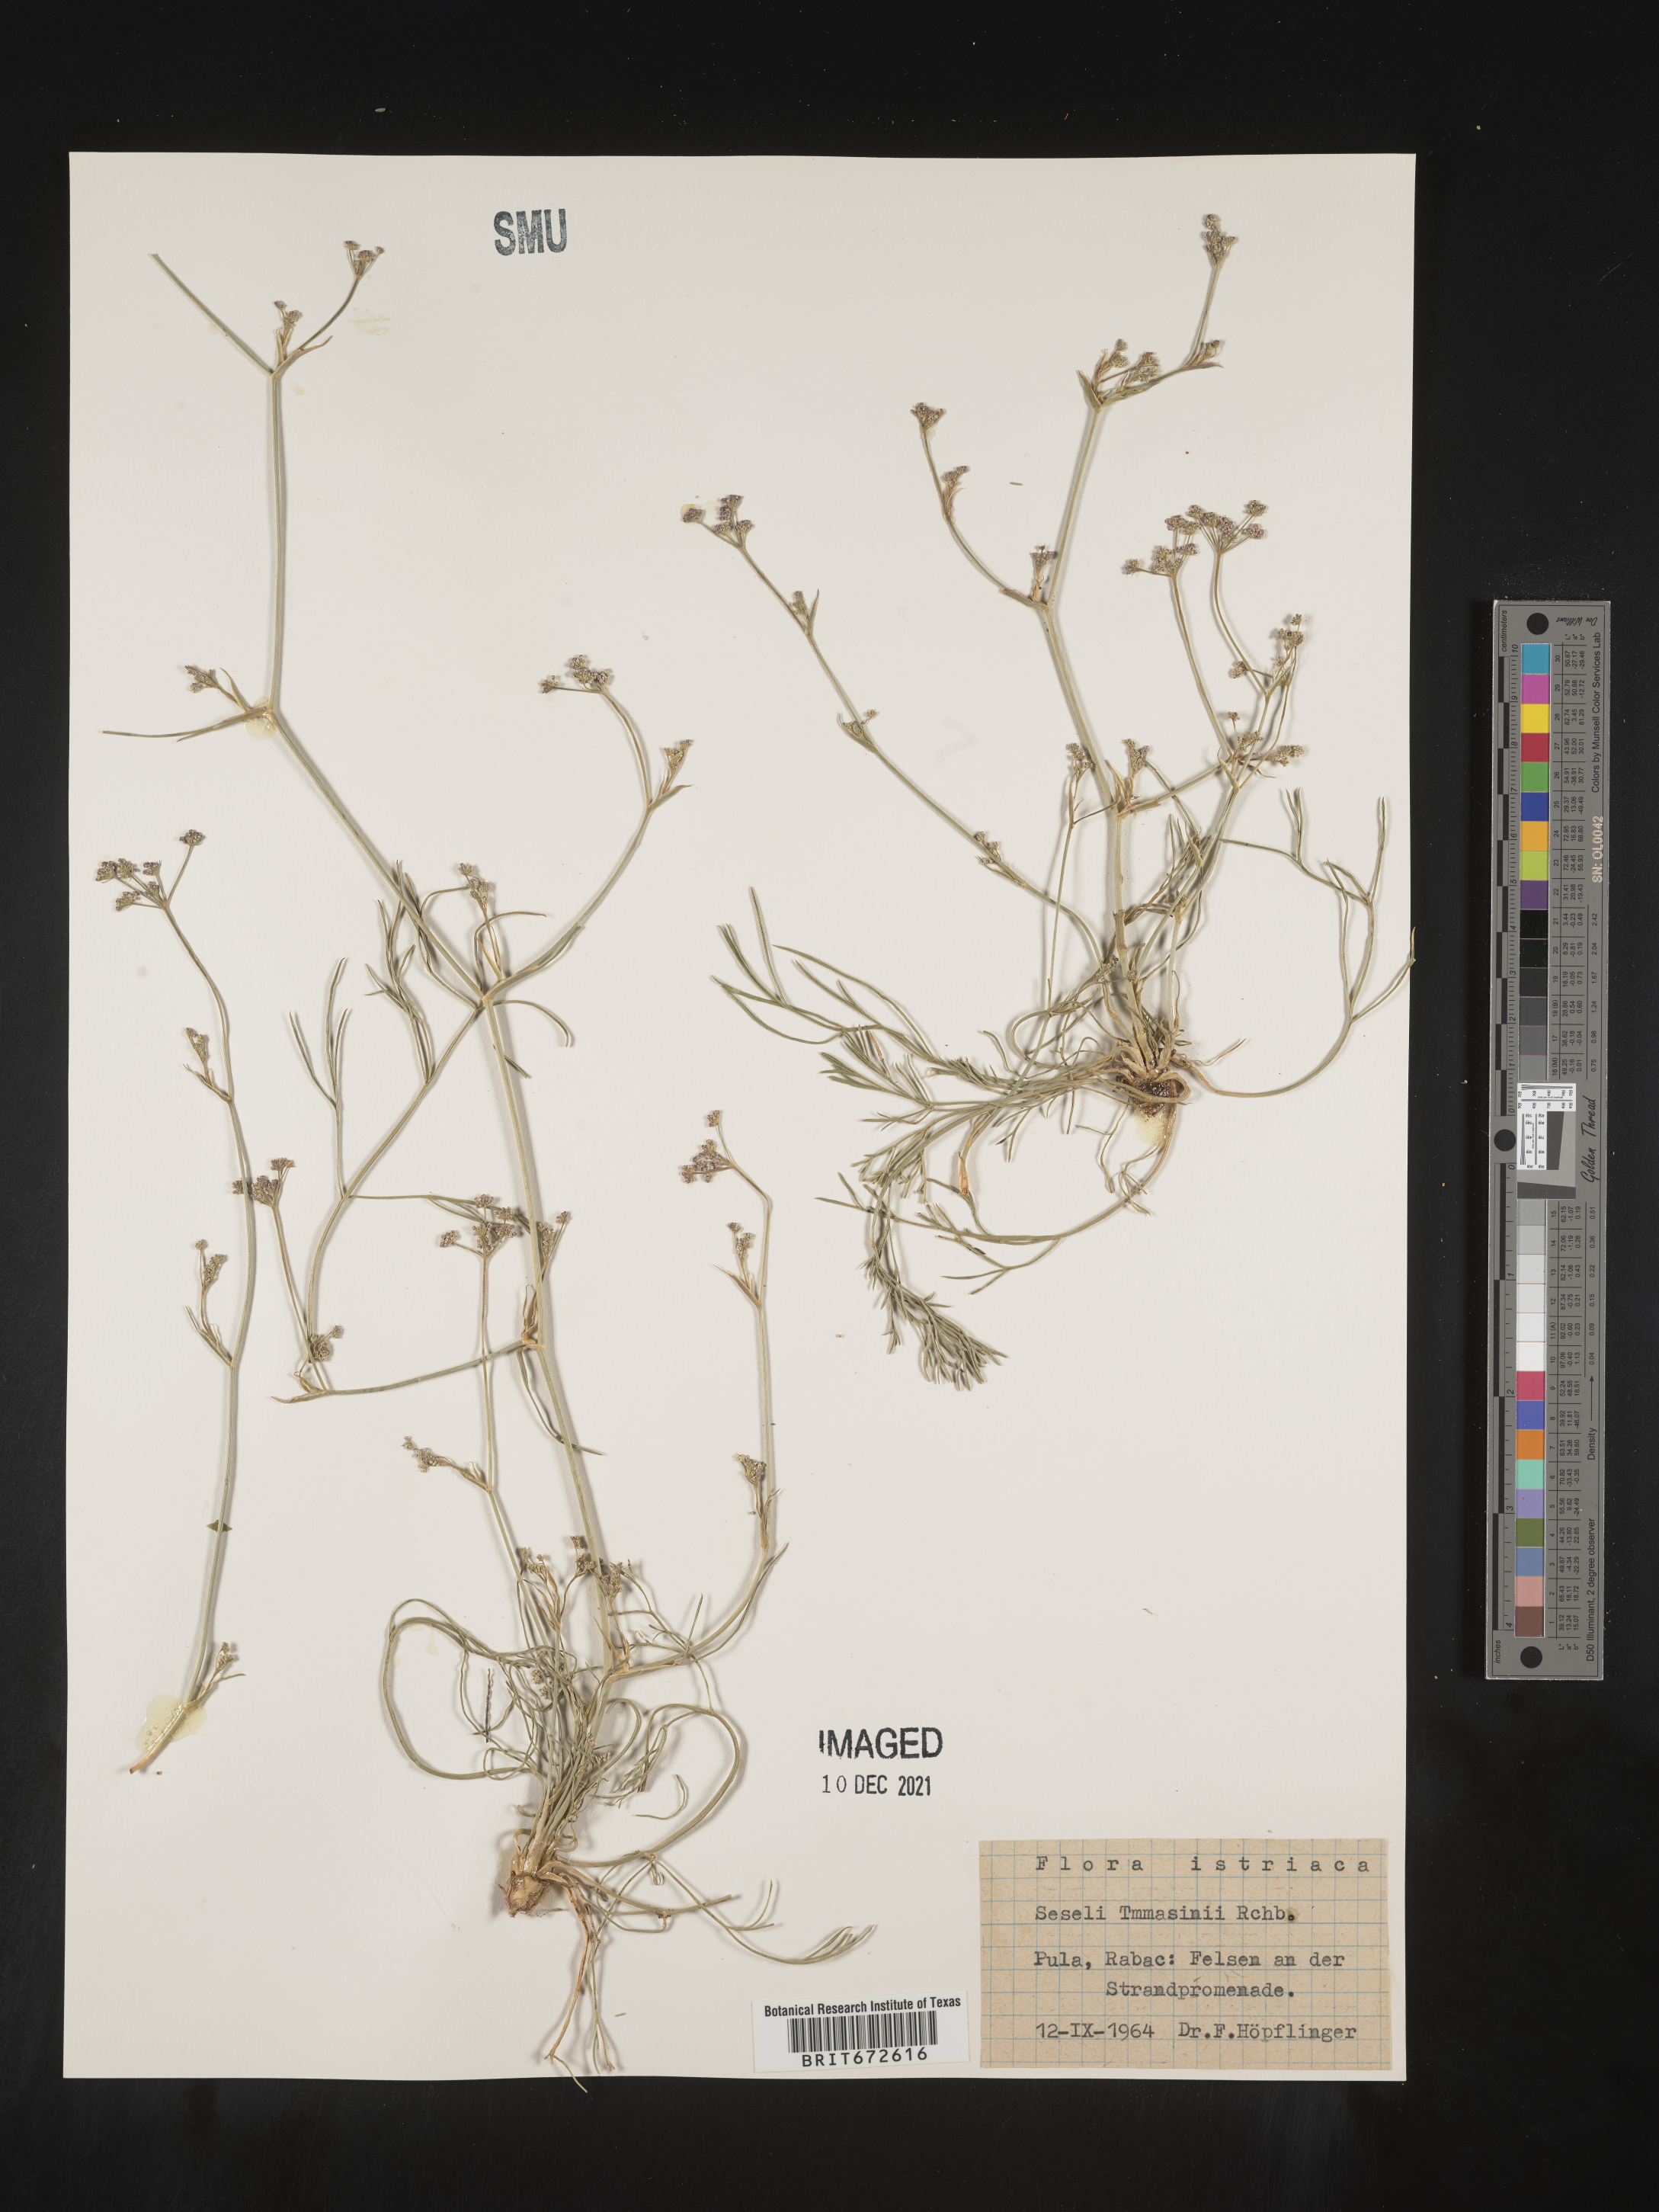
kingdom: Plantae
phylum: Tracheophyta
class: Magnoliopsida
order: Apiales
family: Apiaceae
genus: Seseli
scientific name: Seseli
